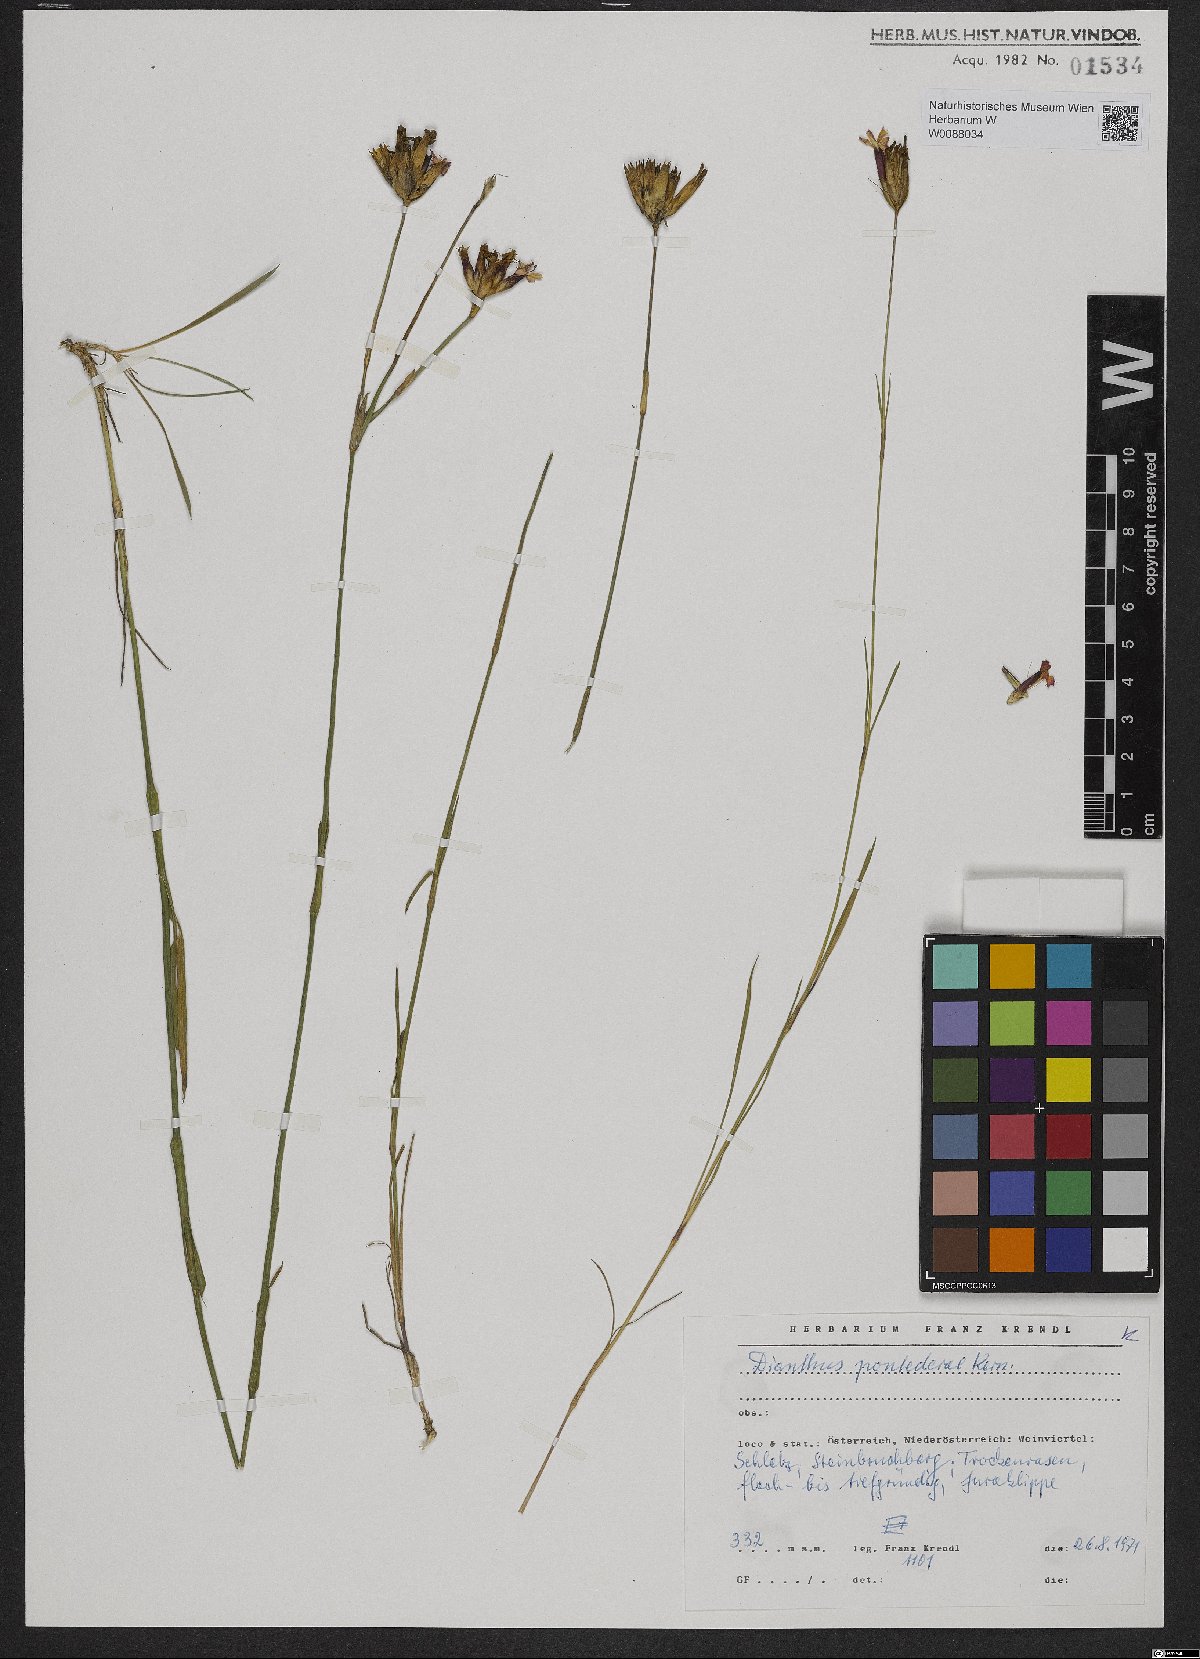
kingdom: Plantae
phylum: Tracheophyta
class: Magnoliopsida
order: Caryophyllales
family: Caryophyllaceae
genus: Dianthus
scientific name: Dianthus pontederae
